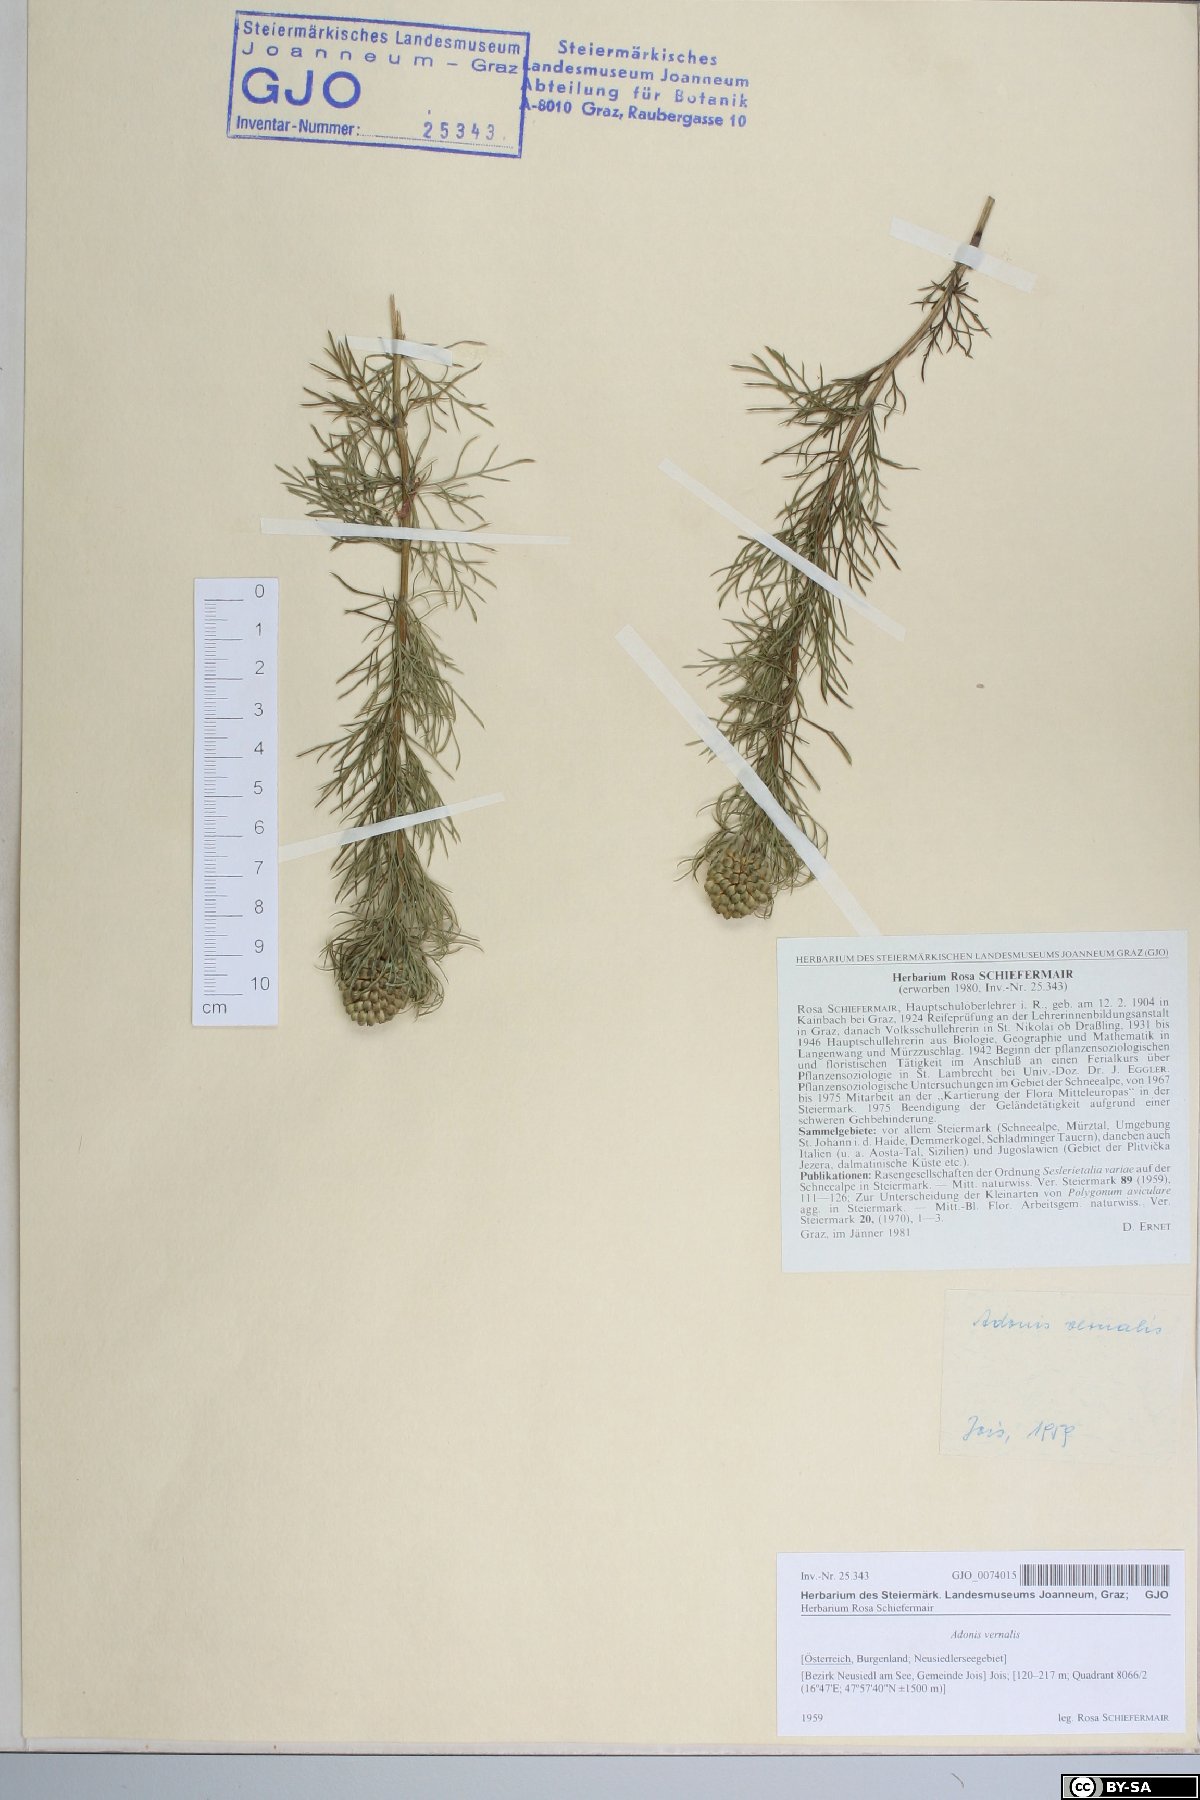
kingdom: Plantae
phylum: Tracheophyta
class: Magnoliopsida
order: Ranunculales
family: Ranunculaceae
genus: Adonis
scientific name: Adonis vernalis
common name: Yellow pheasants-eye
